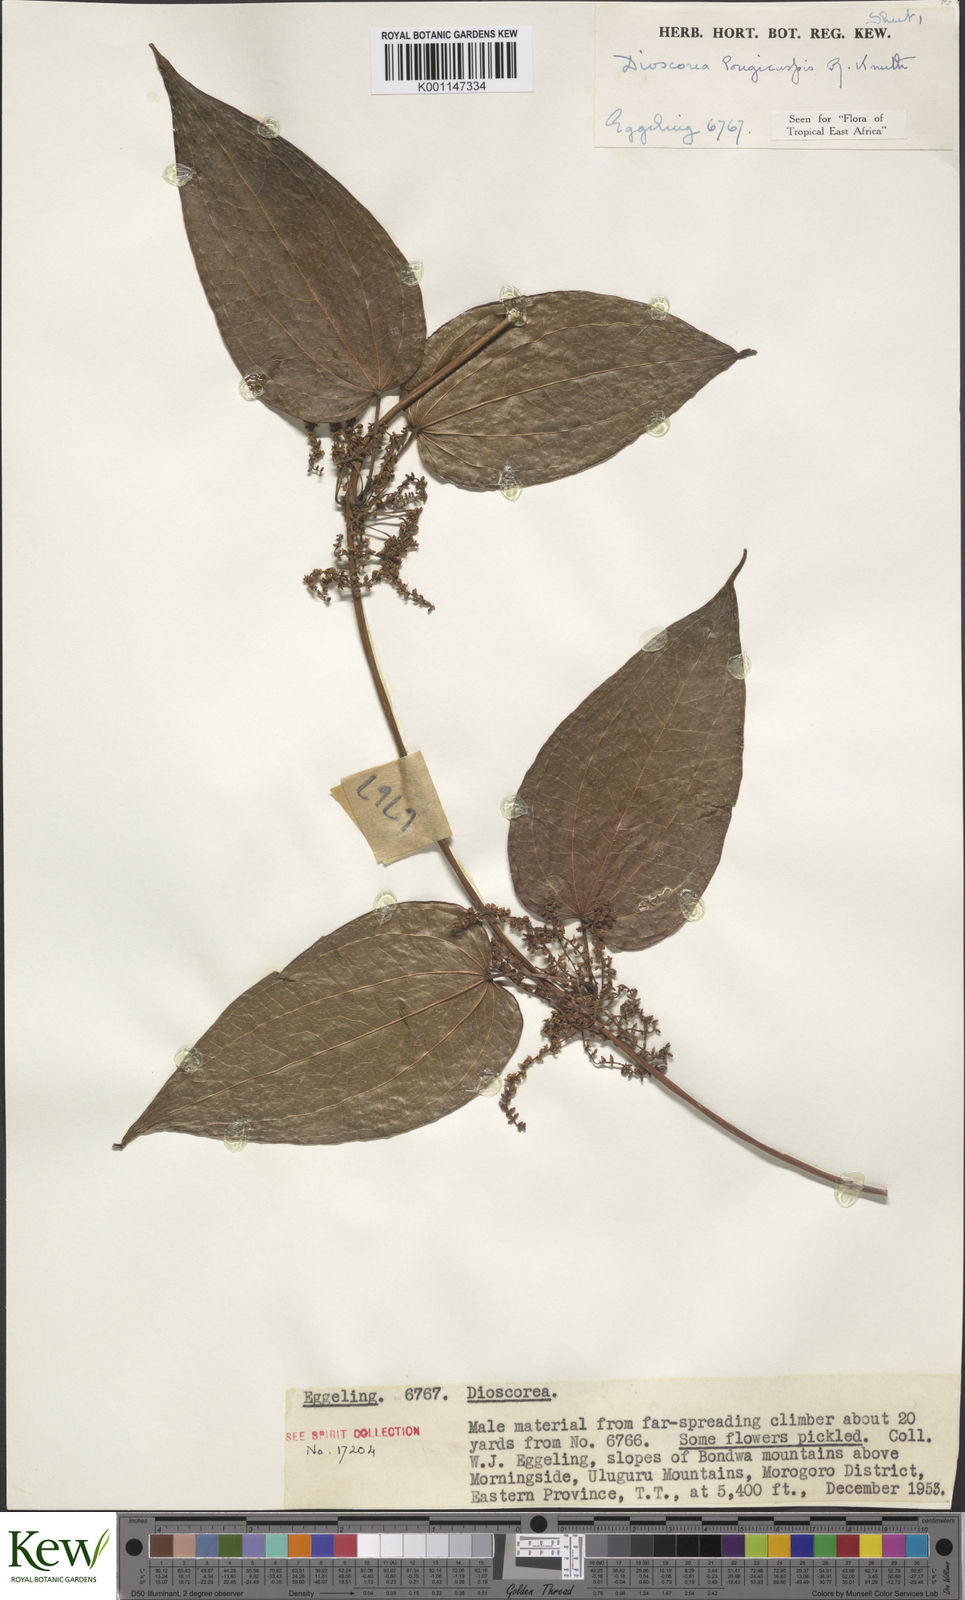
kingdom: Plantae
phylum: Tracheophyta
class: Liliopsida
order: Dioscoreales
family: Dioscoreaceae
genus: Dioscorea
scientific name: Dioscorea longicuspis
